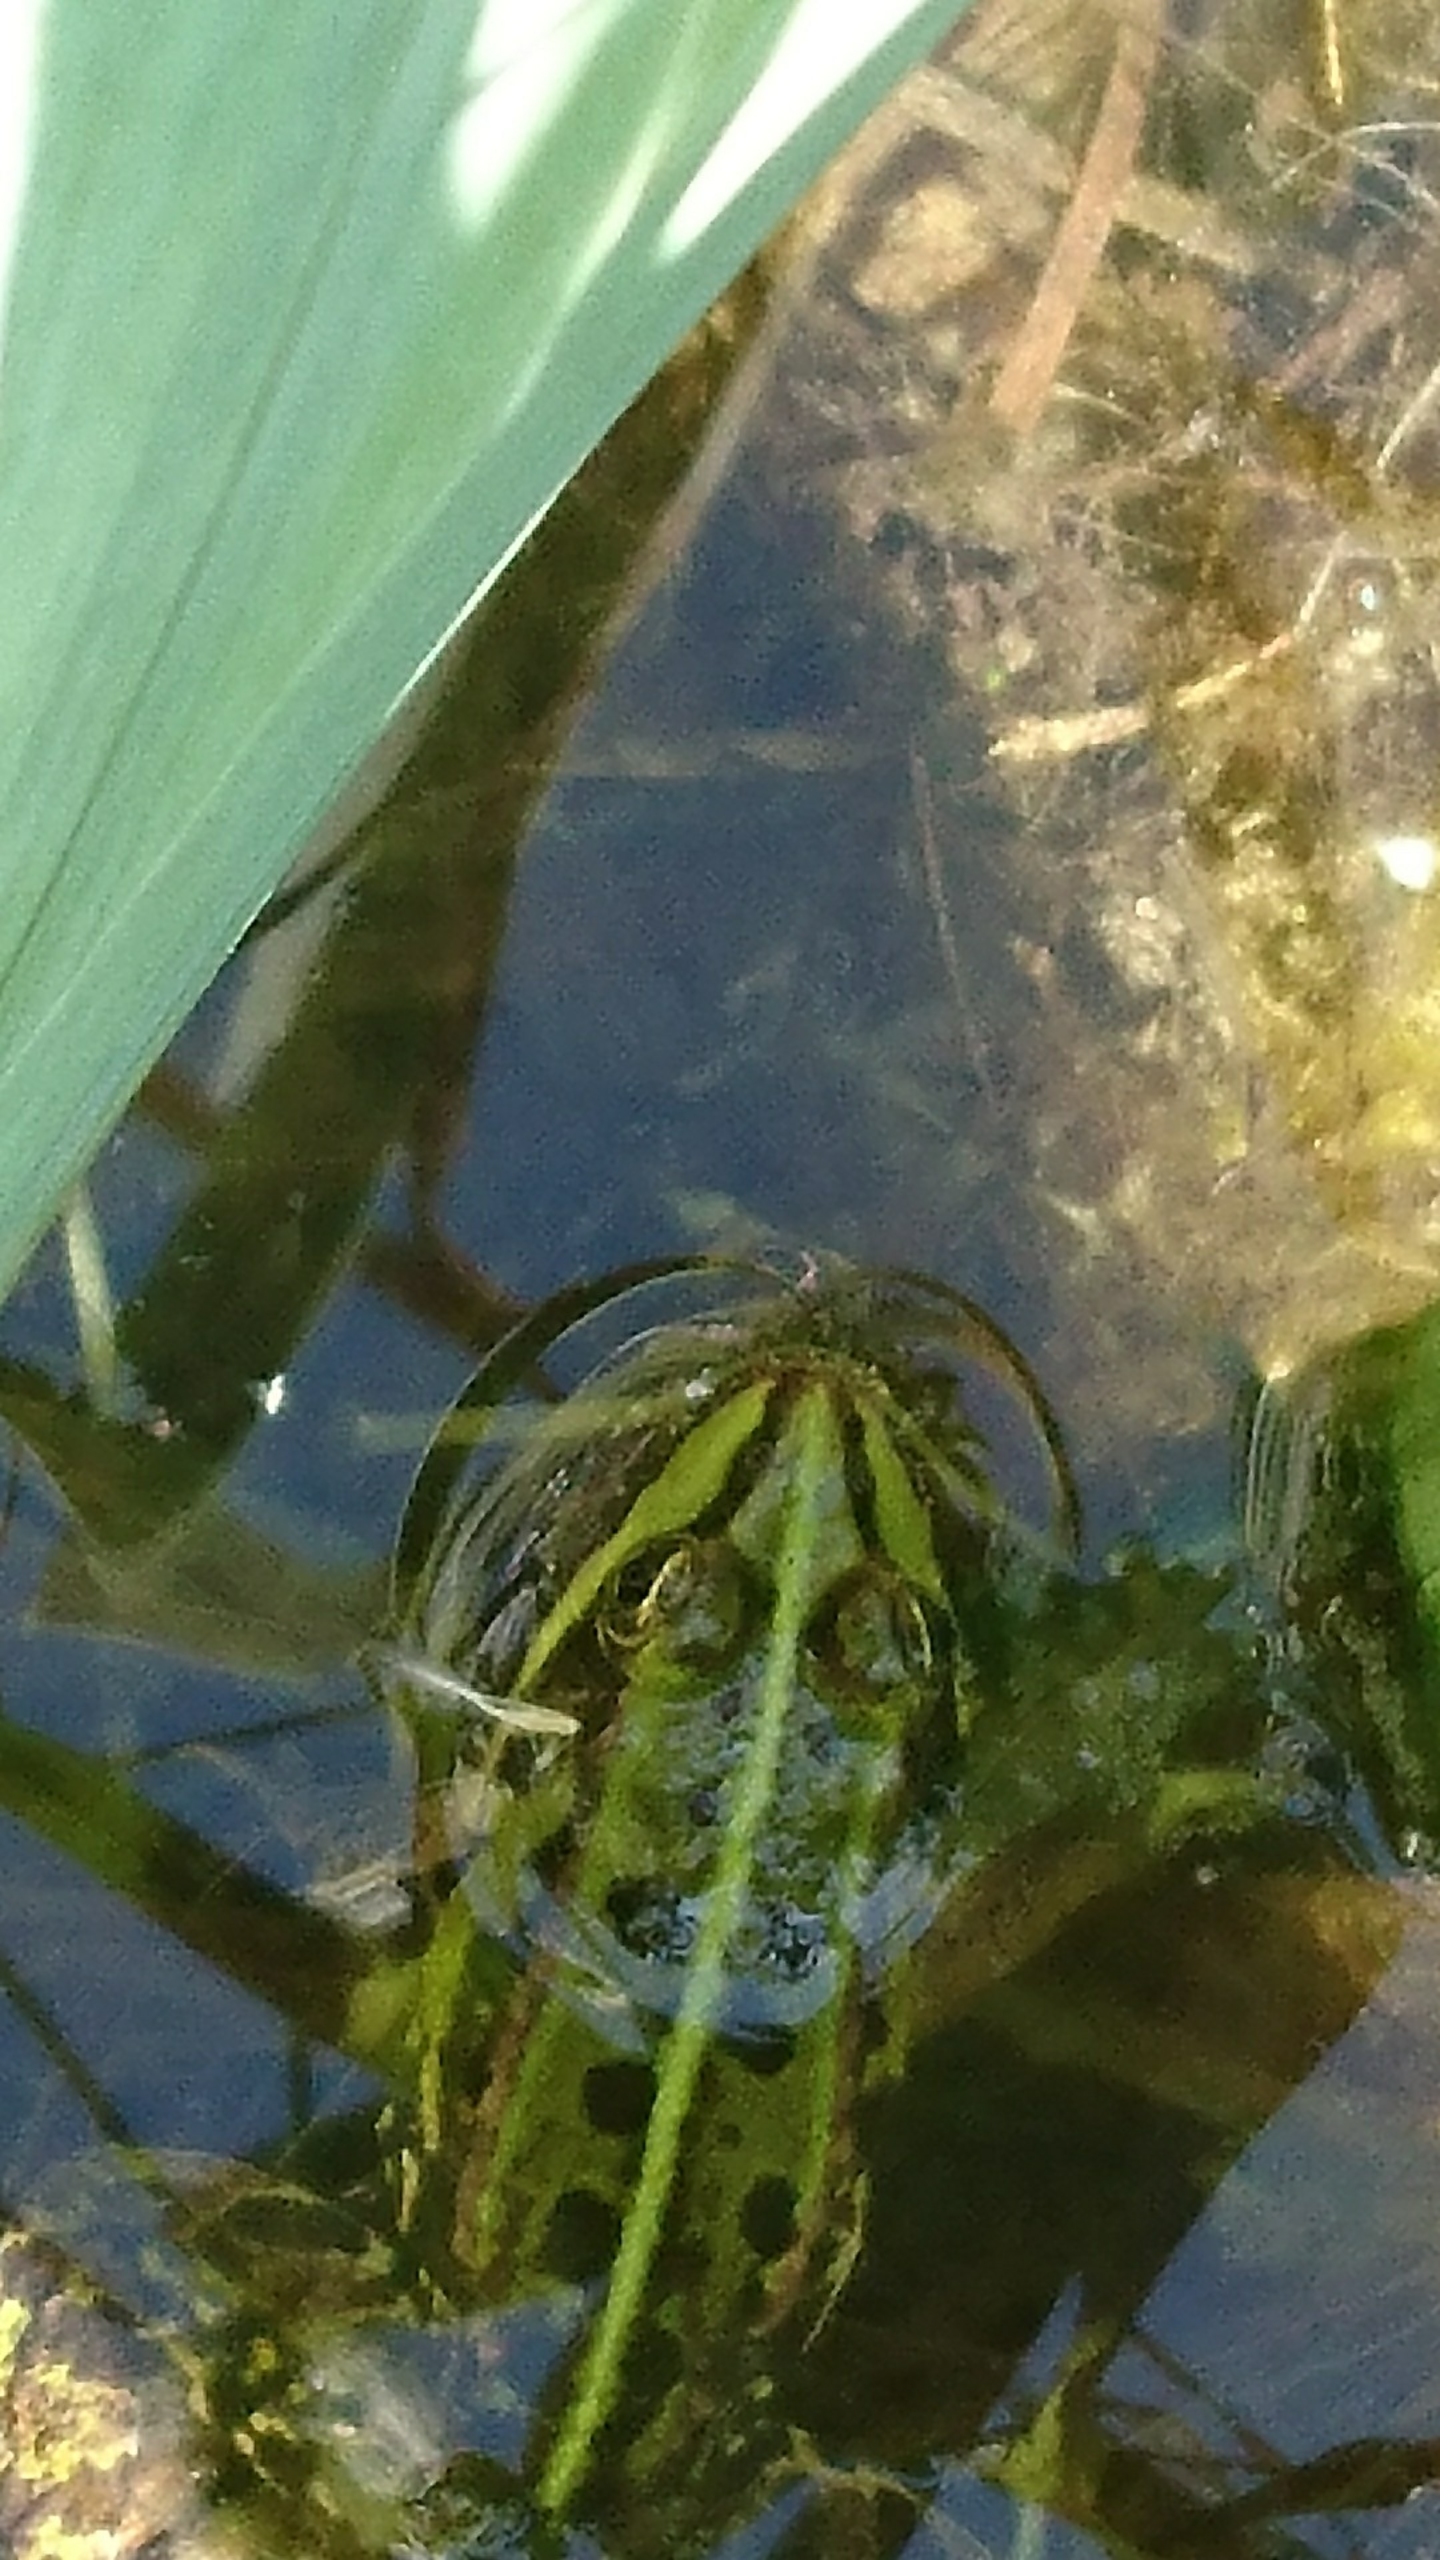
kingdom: Animalia
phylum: Chordata
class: Amphibia
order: Anura
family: Ranidae
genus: Pelophylax
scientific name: Pelophylax lessonae
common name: Grøn frø
